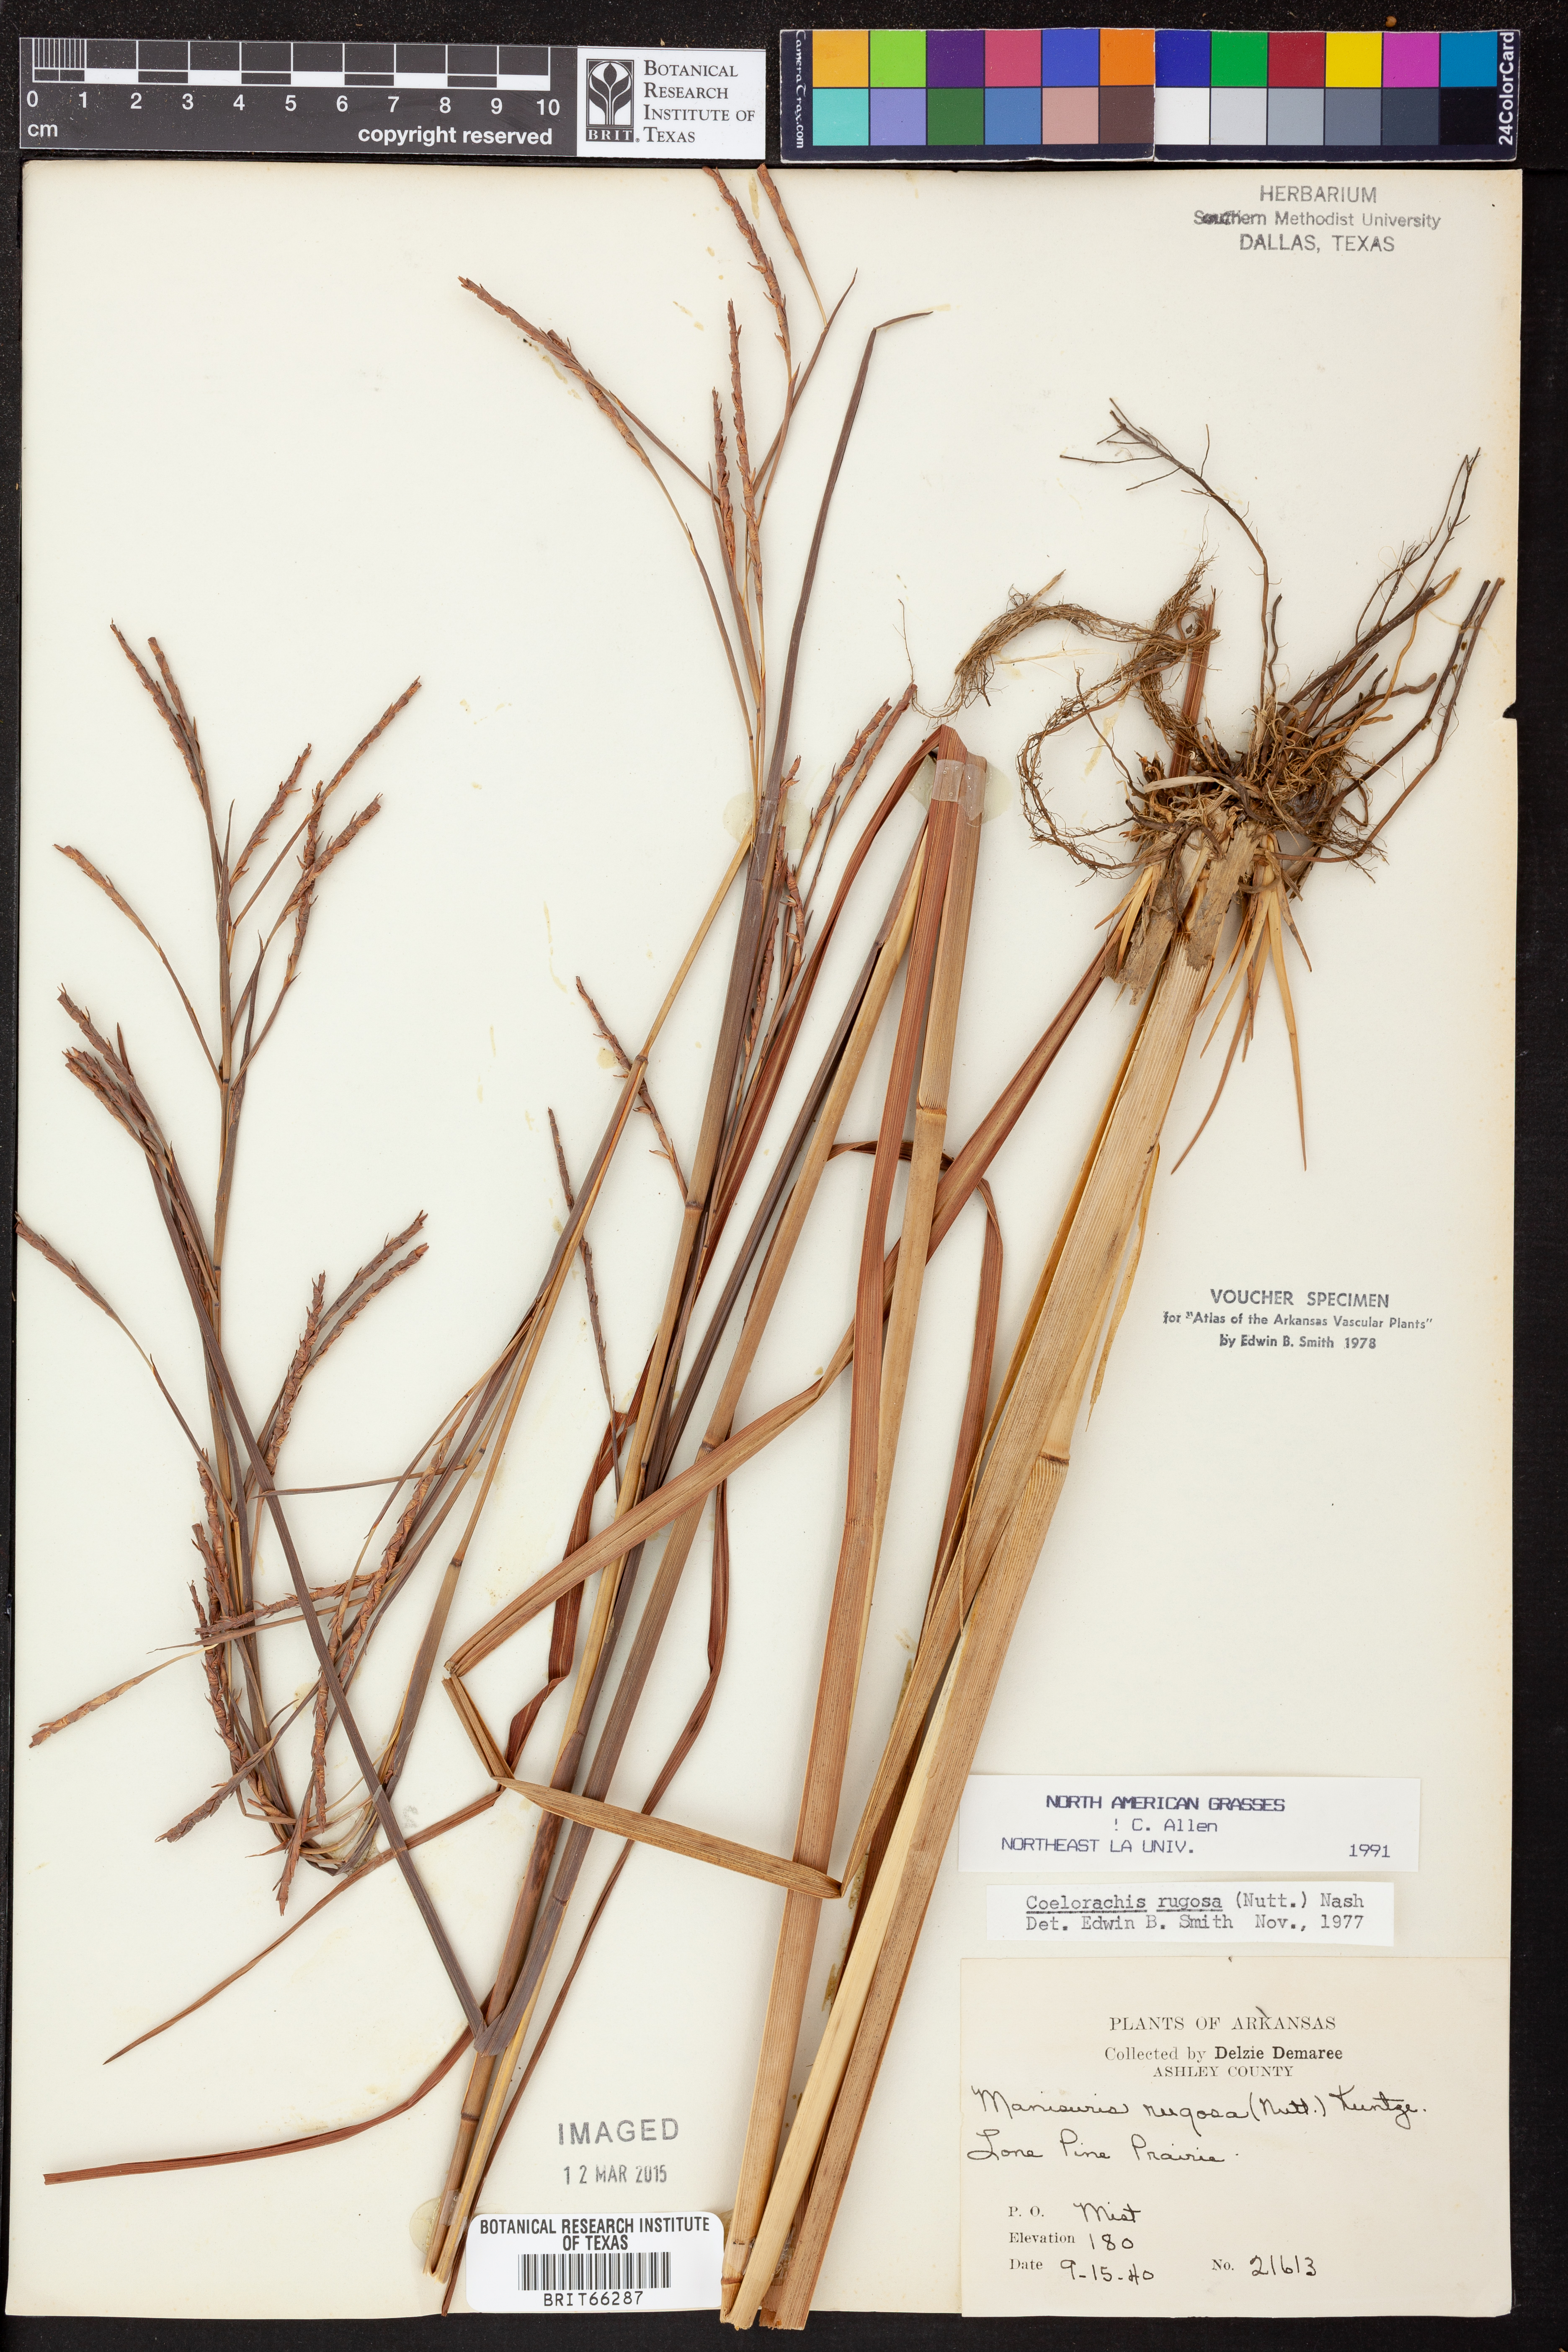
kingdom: Plantae
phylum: Tracheophyta
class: Liliopsida
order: Poales
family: Poaceae
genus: Rottboellia
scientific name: Rottboellia rugosa
